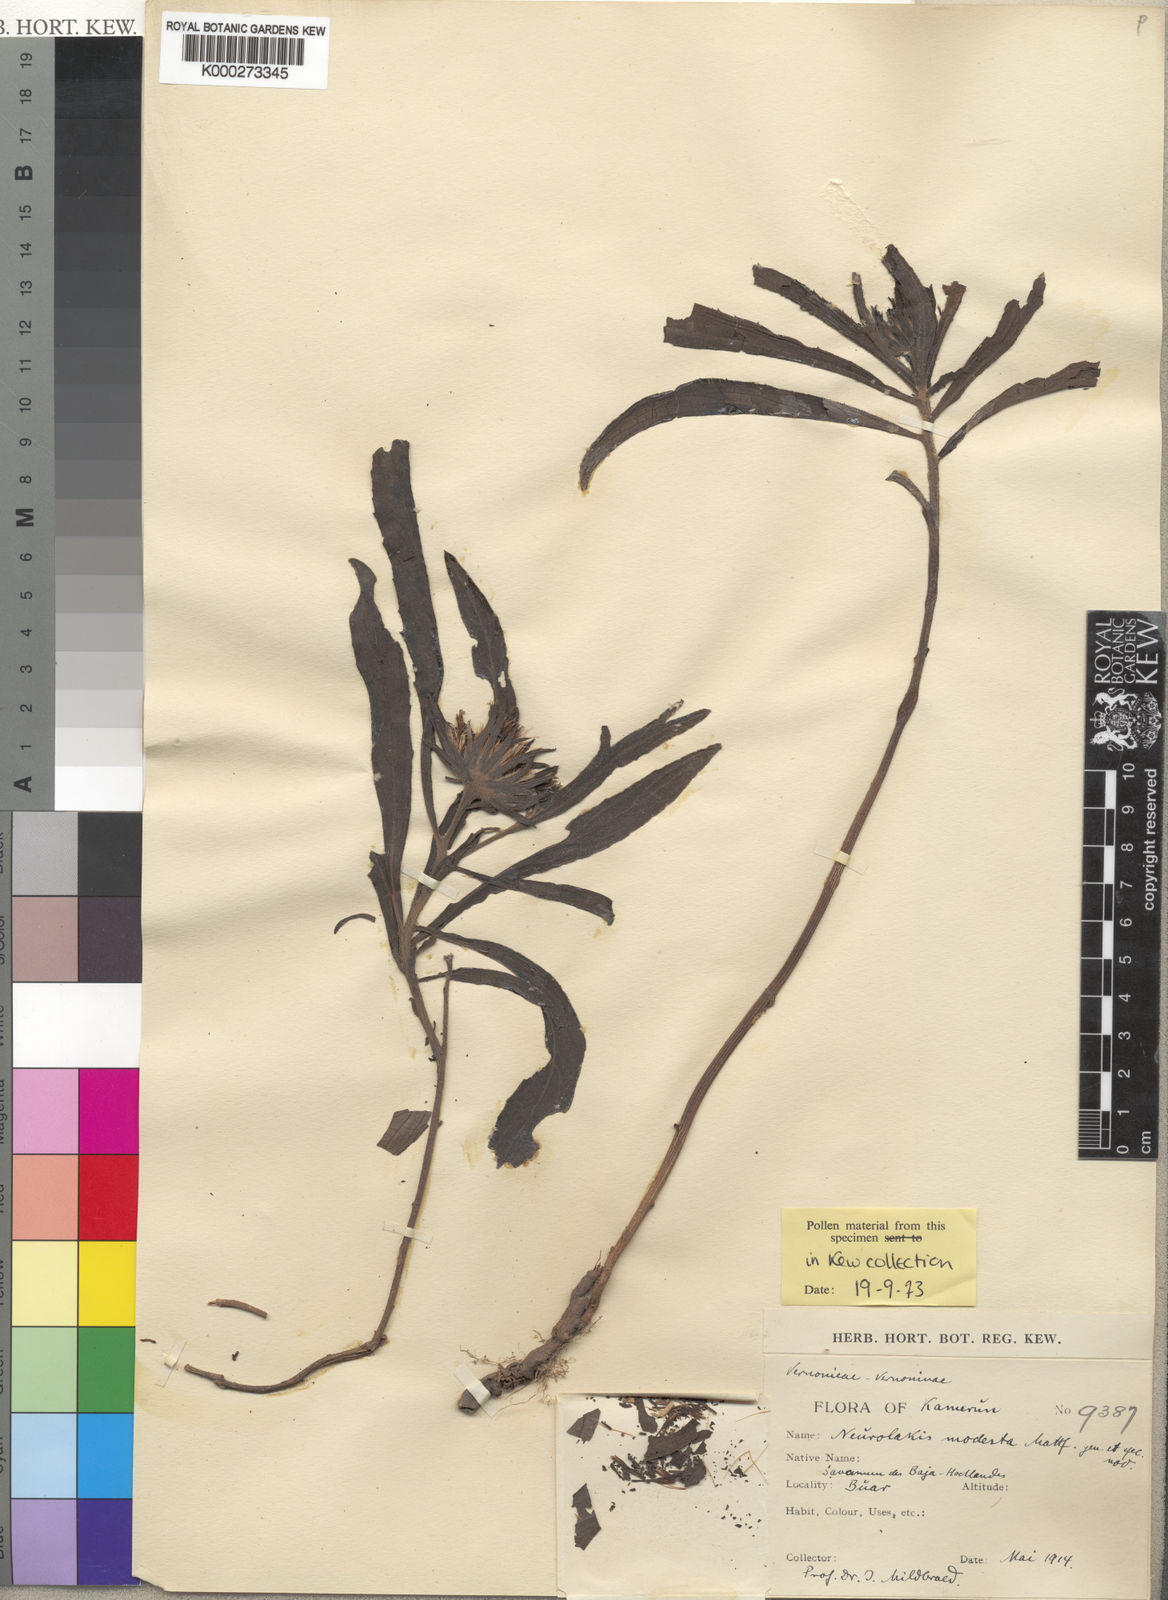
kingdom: Plantae
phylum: Tracheophyta
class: Magnoliopsida
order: Asterales
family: Asteraceae
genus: Neurolakis
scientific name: Neurolakis modesta
